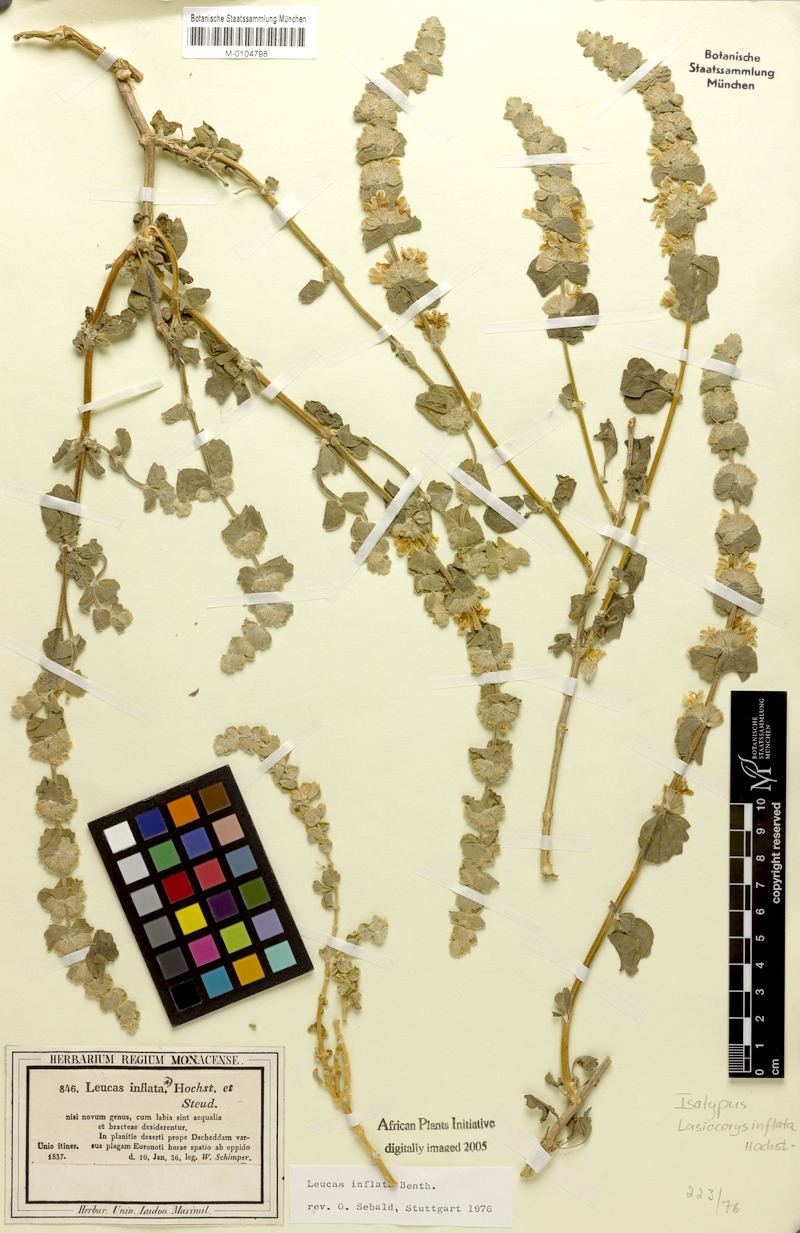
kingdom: Plantae
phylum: Tracheophyta
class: Magnoliopsida
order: Lamiales
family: Lamiaceae
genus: Leucas
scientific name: Leucas inflata
